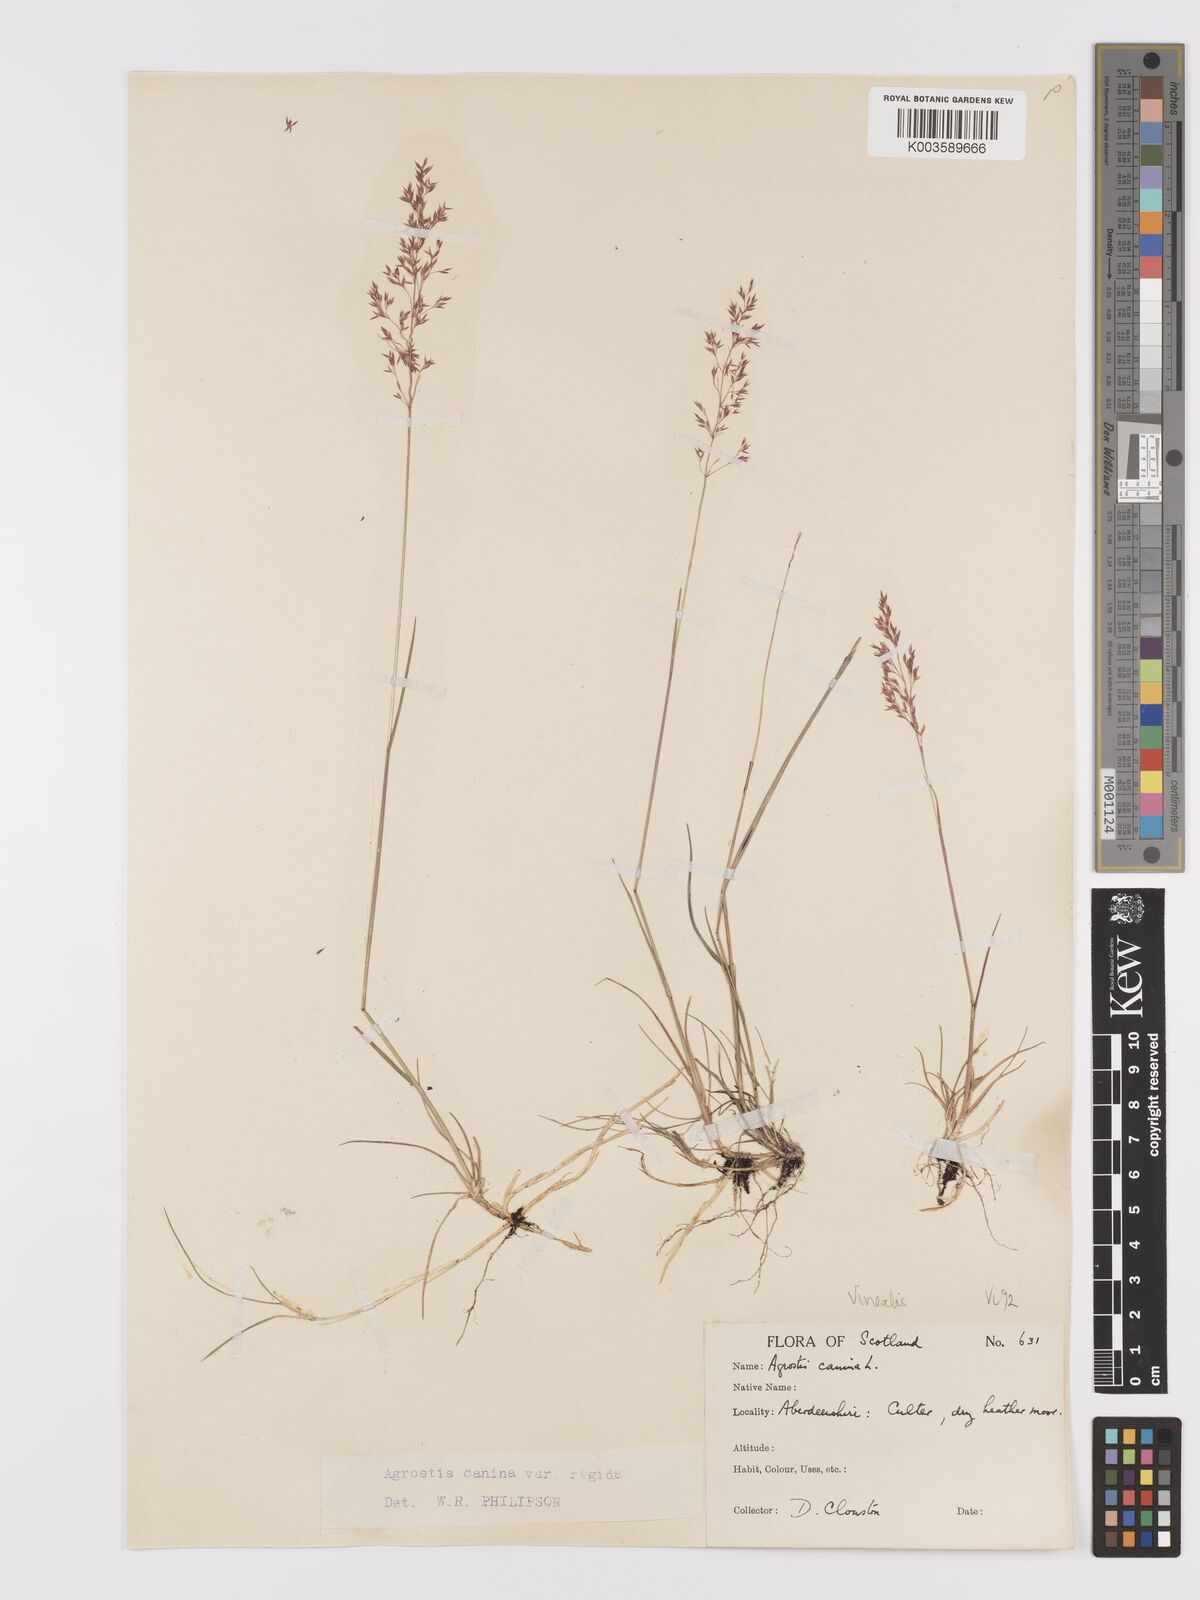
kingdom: Plantae
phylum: Tracheophyta
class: Liliopsida
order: Poales
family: Poaceae
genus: Agrostis
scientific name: Agrostis
